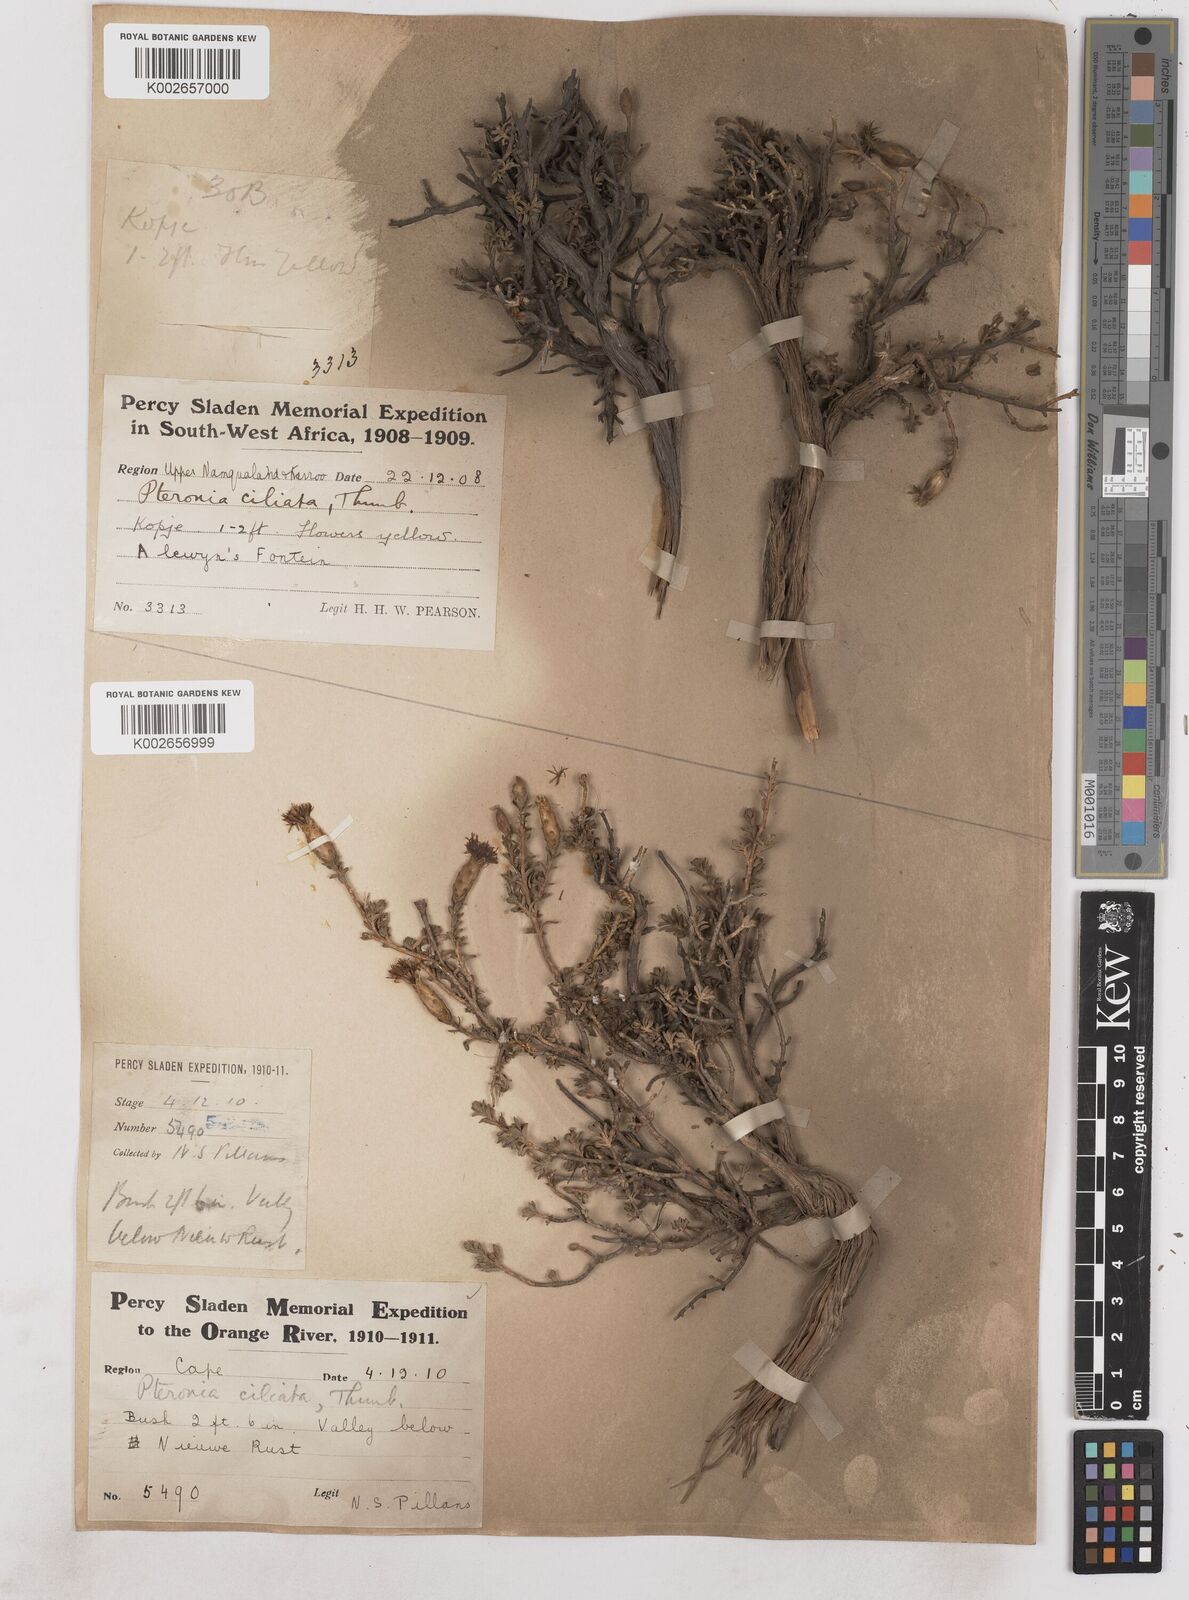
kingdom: Plantae
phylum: Tracheophyta
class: Magnoliopsida
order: Asterales
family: Asteraceae
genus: Pteronia
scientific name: Pteronia ciliata
